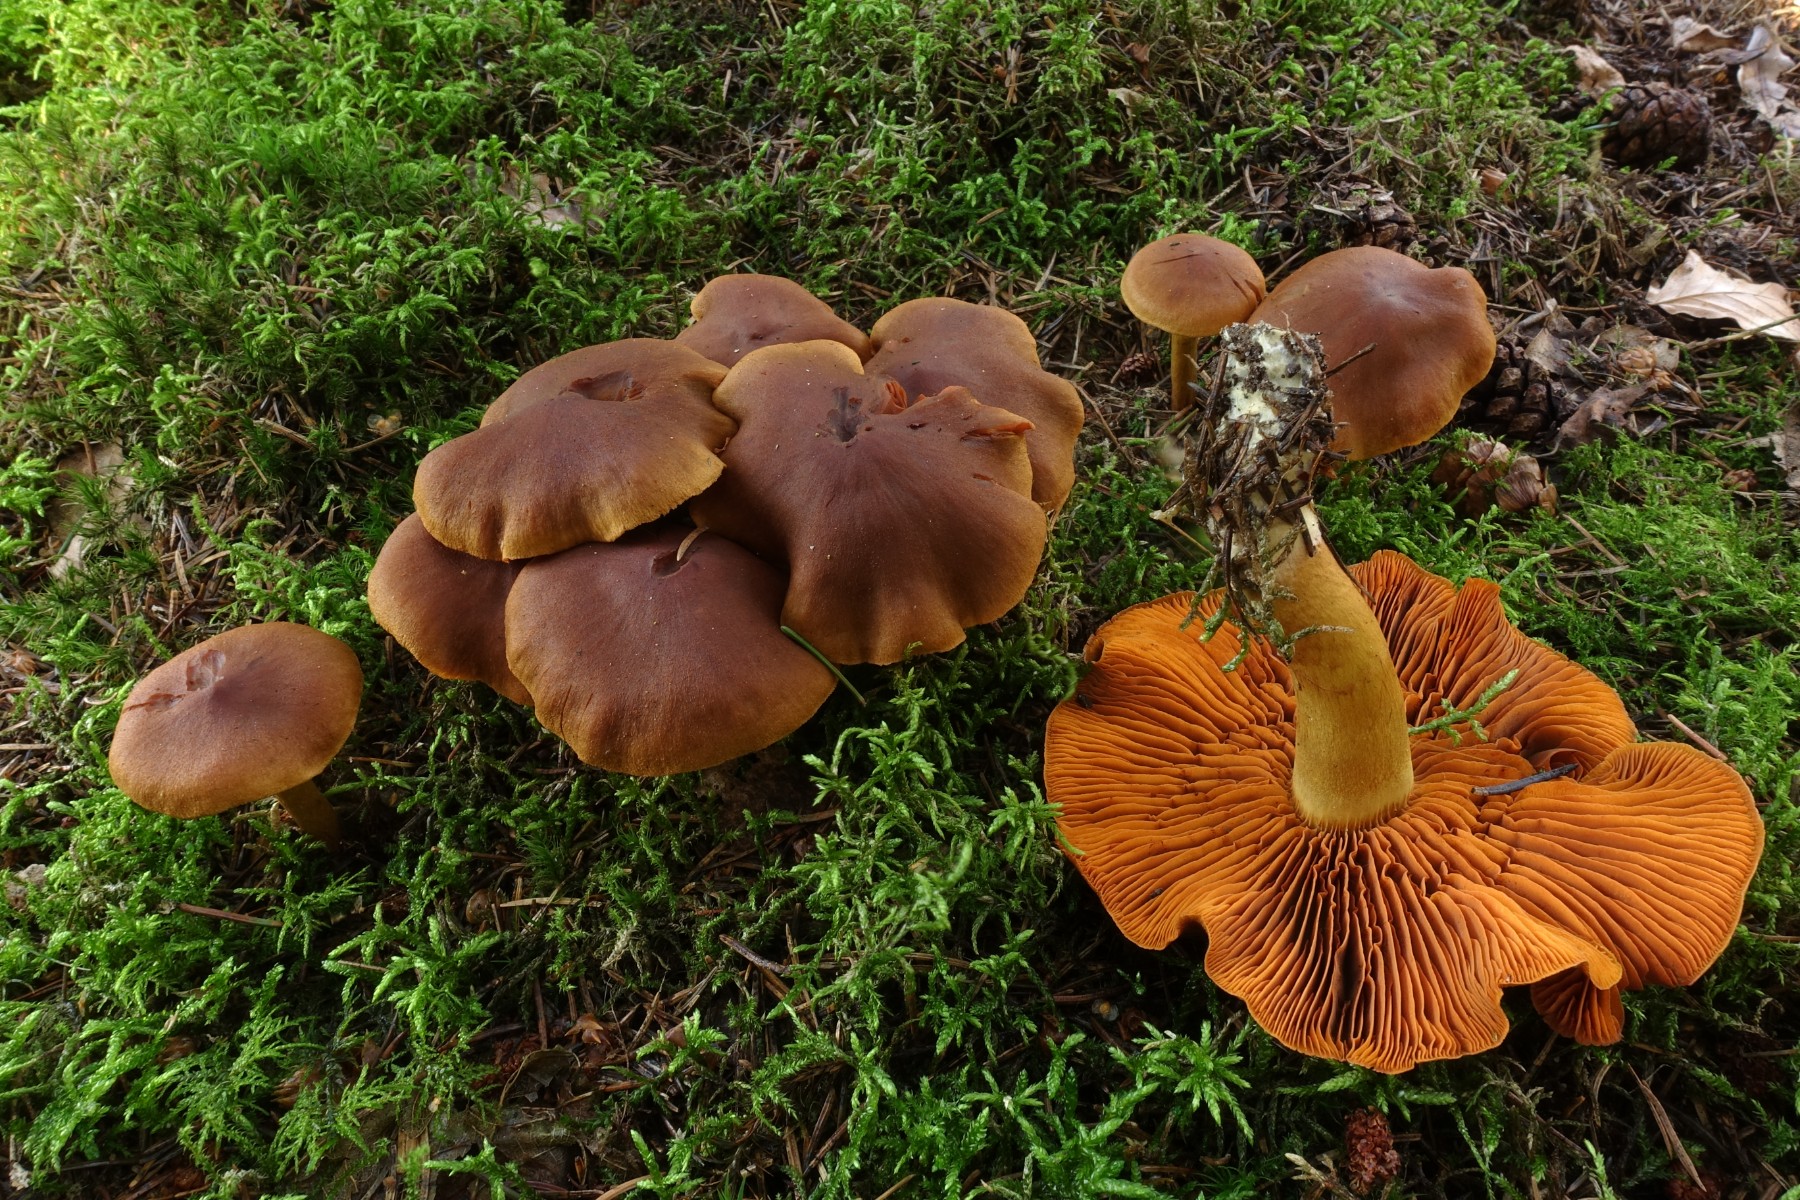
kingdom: Fungi
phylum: Basidiomycota
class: Agaricomycetes
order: Agaricales
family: Cortinariaceae
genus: Cortinarius
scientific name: Cortinarius malicorius
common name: grønkødet slørhat
